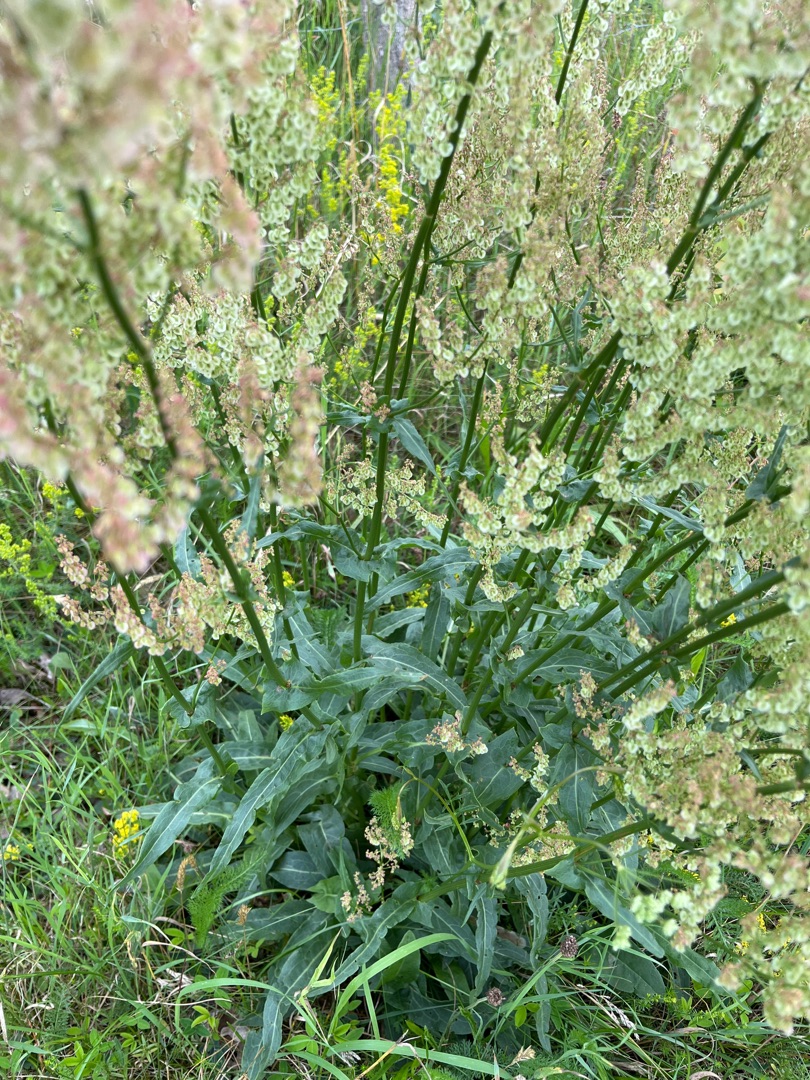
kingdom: Plantae
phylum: Tracheophyta
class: Magnoliopsida
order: Caryophyllales
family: Polygonaceae
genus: Rumex
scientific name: Rumex thyrsiflorus
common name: Dusk-syre
